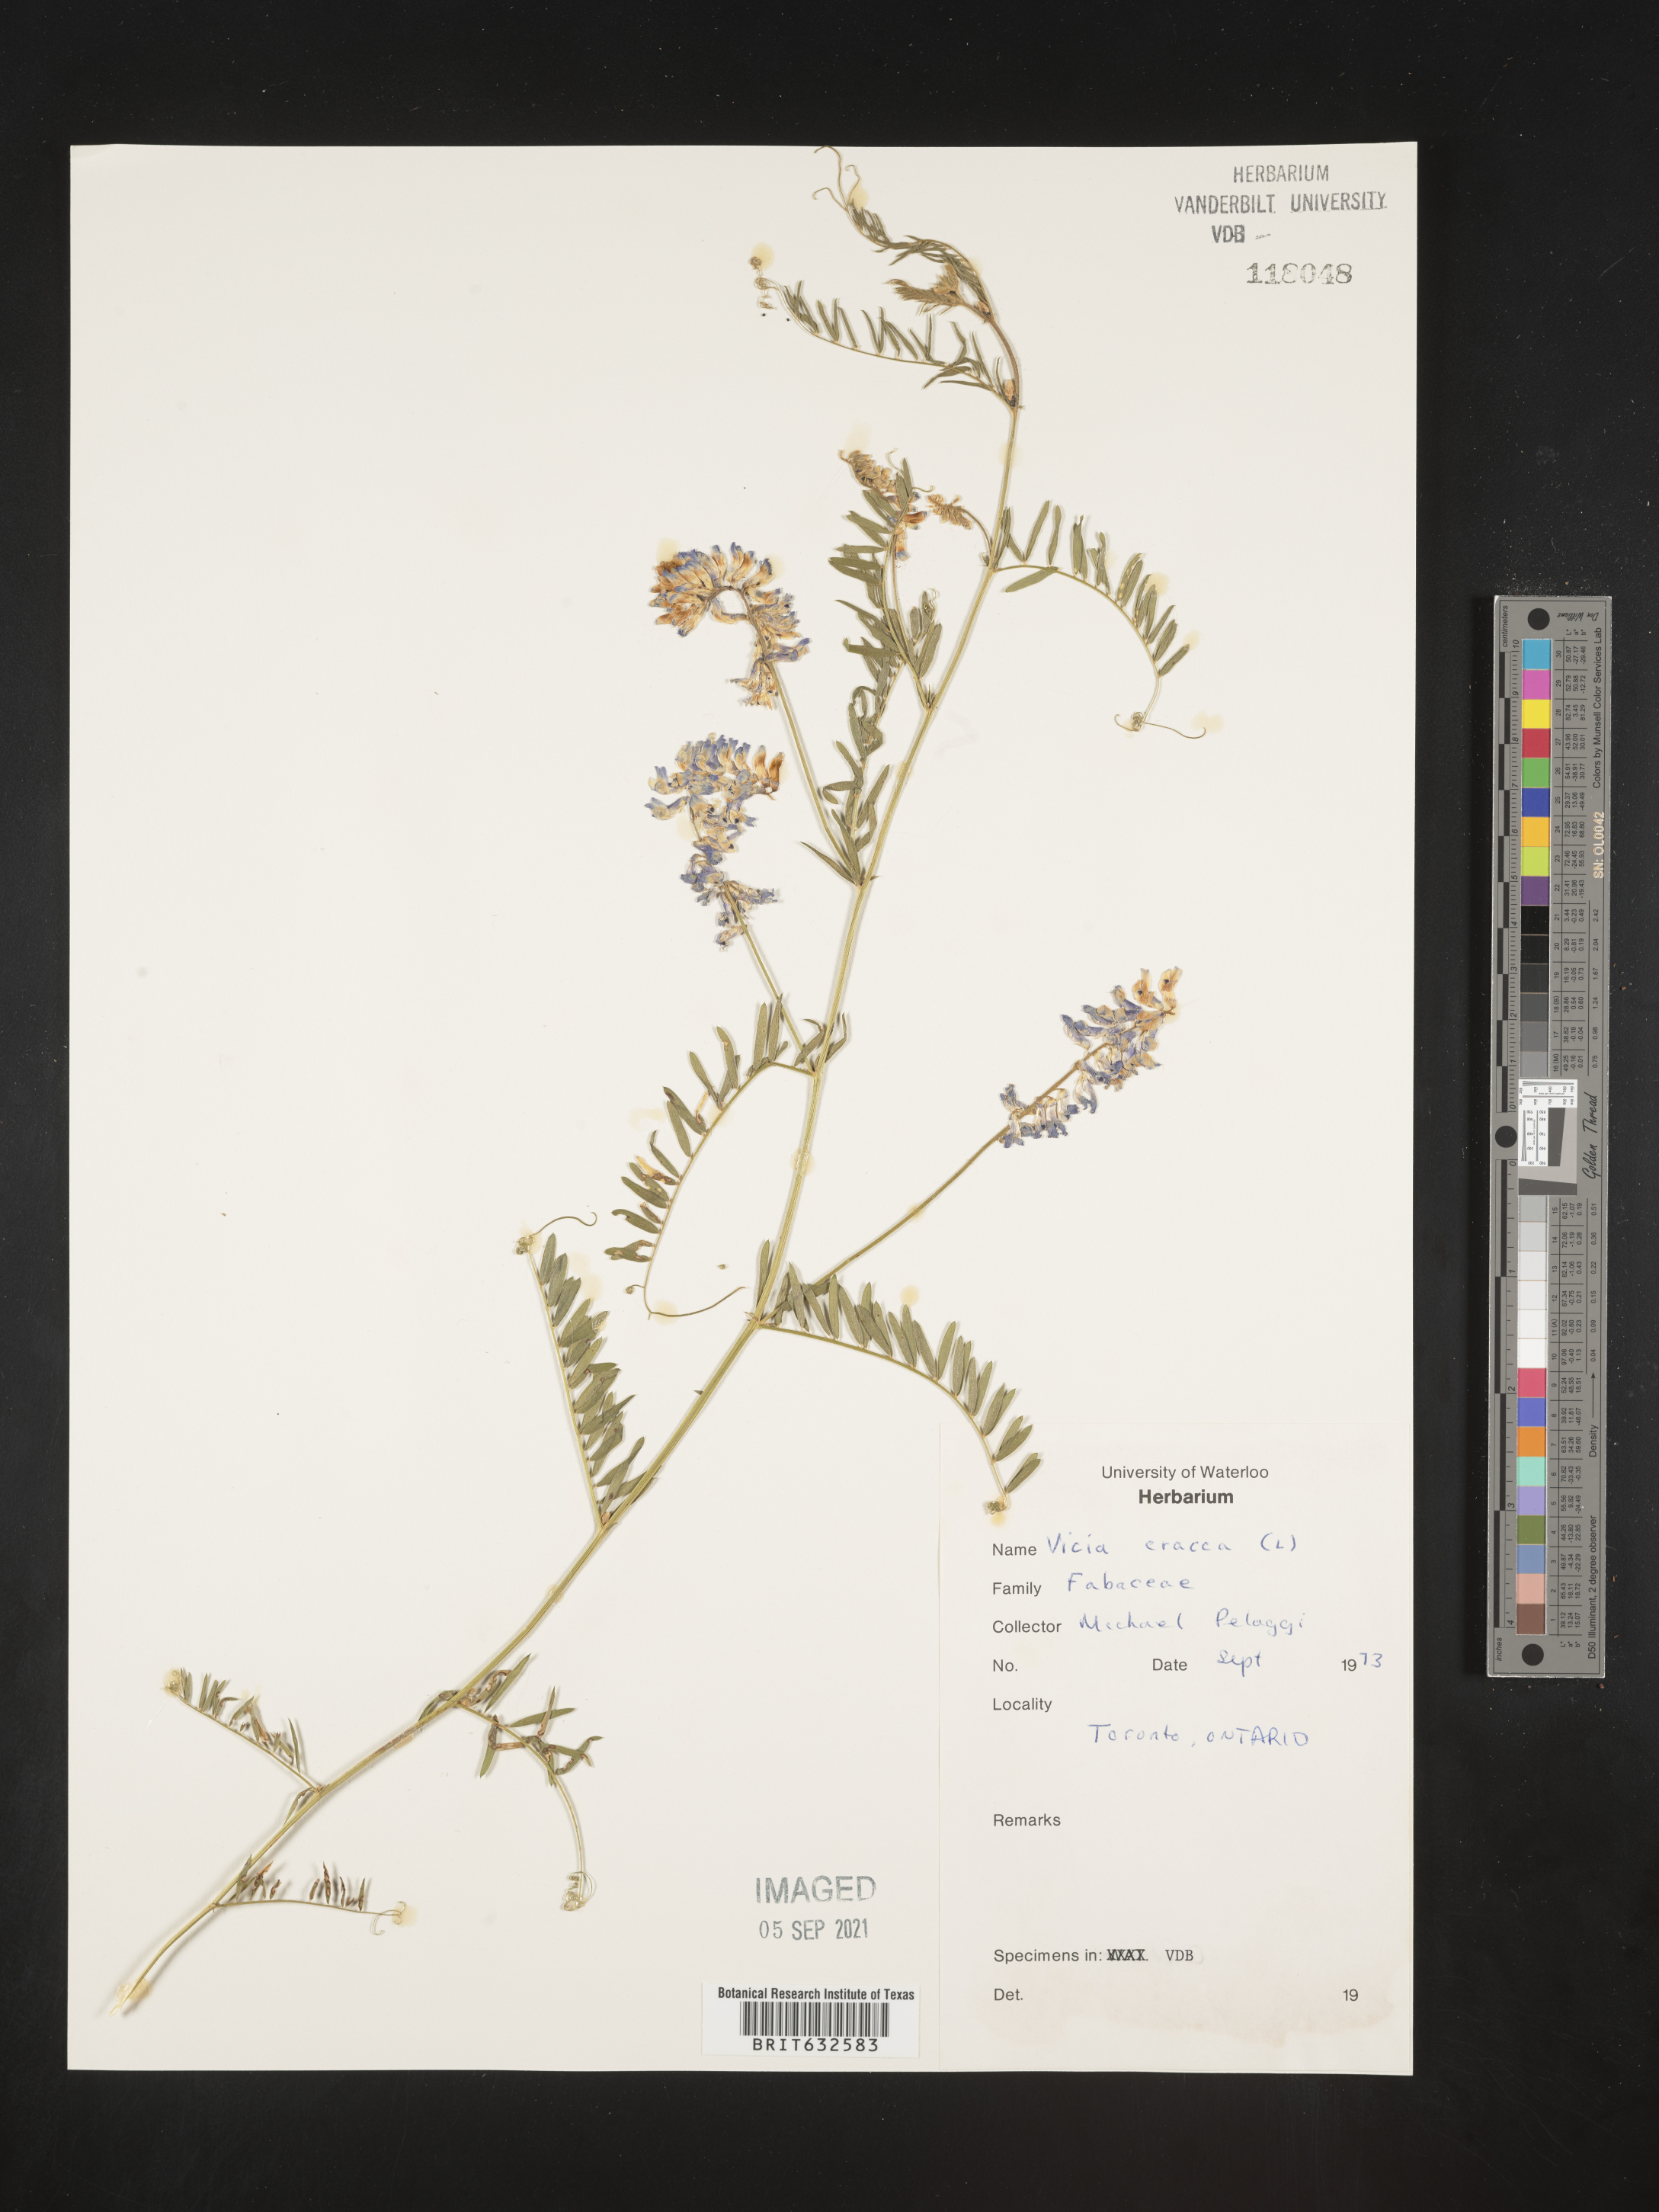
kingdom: Plantae
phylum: Tracheophyta
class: Magnoliopsida
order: Fabales
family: Fabaceae
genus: Vicia
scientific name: Vicia
